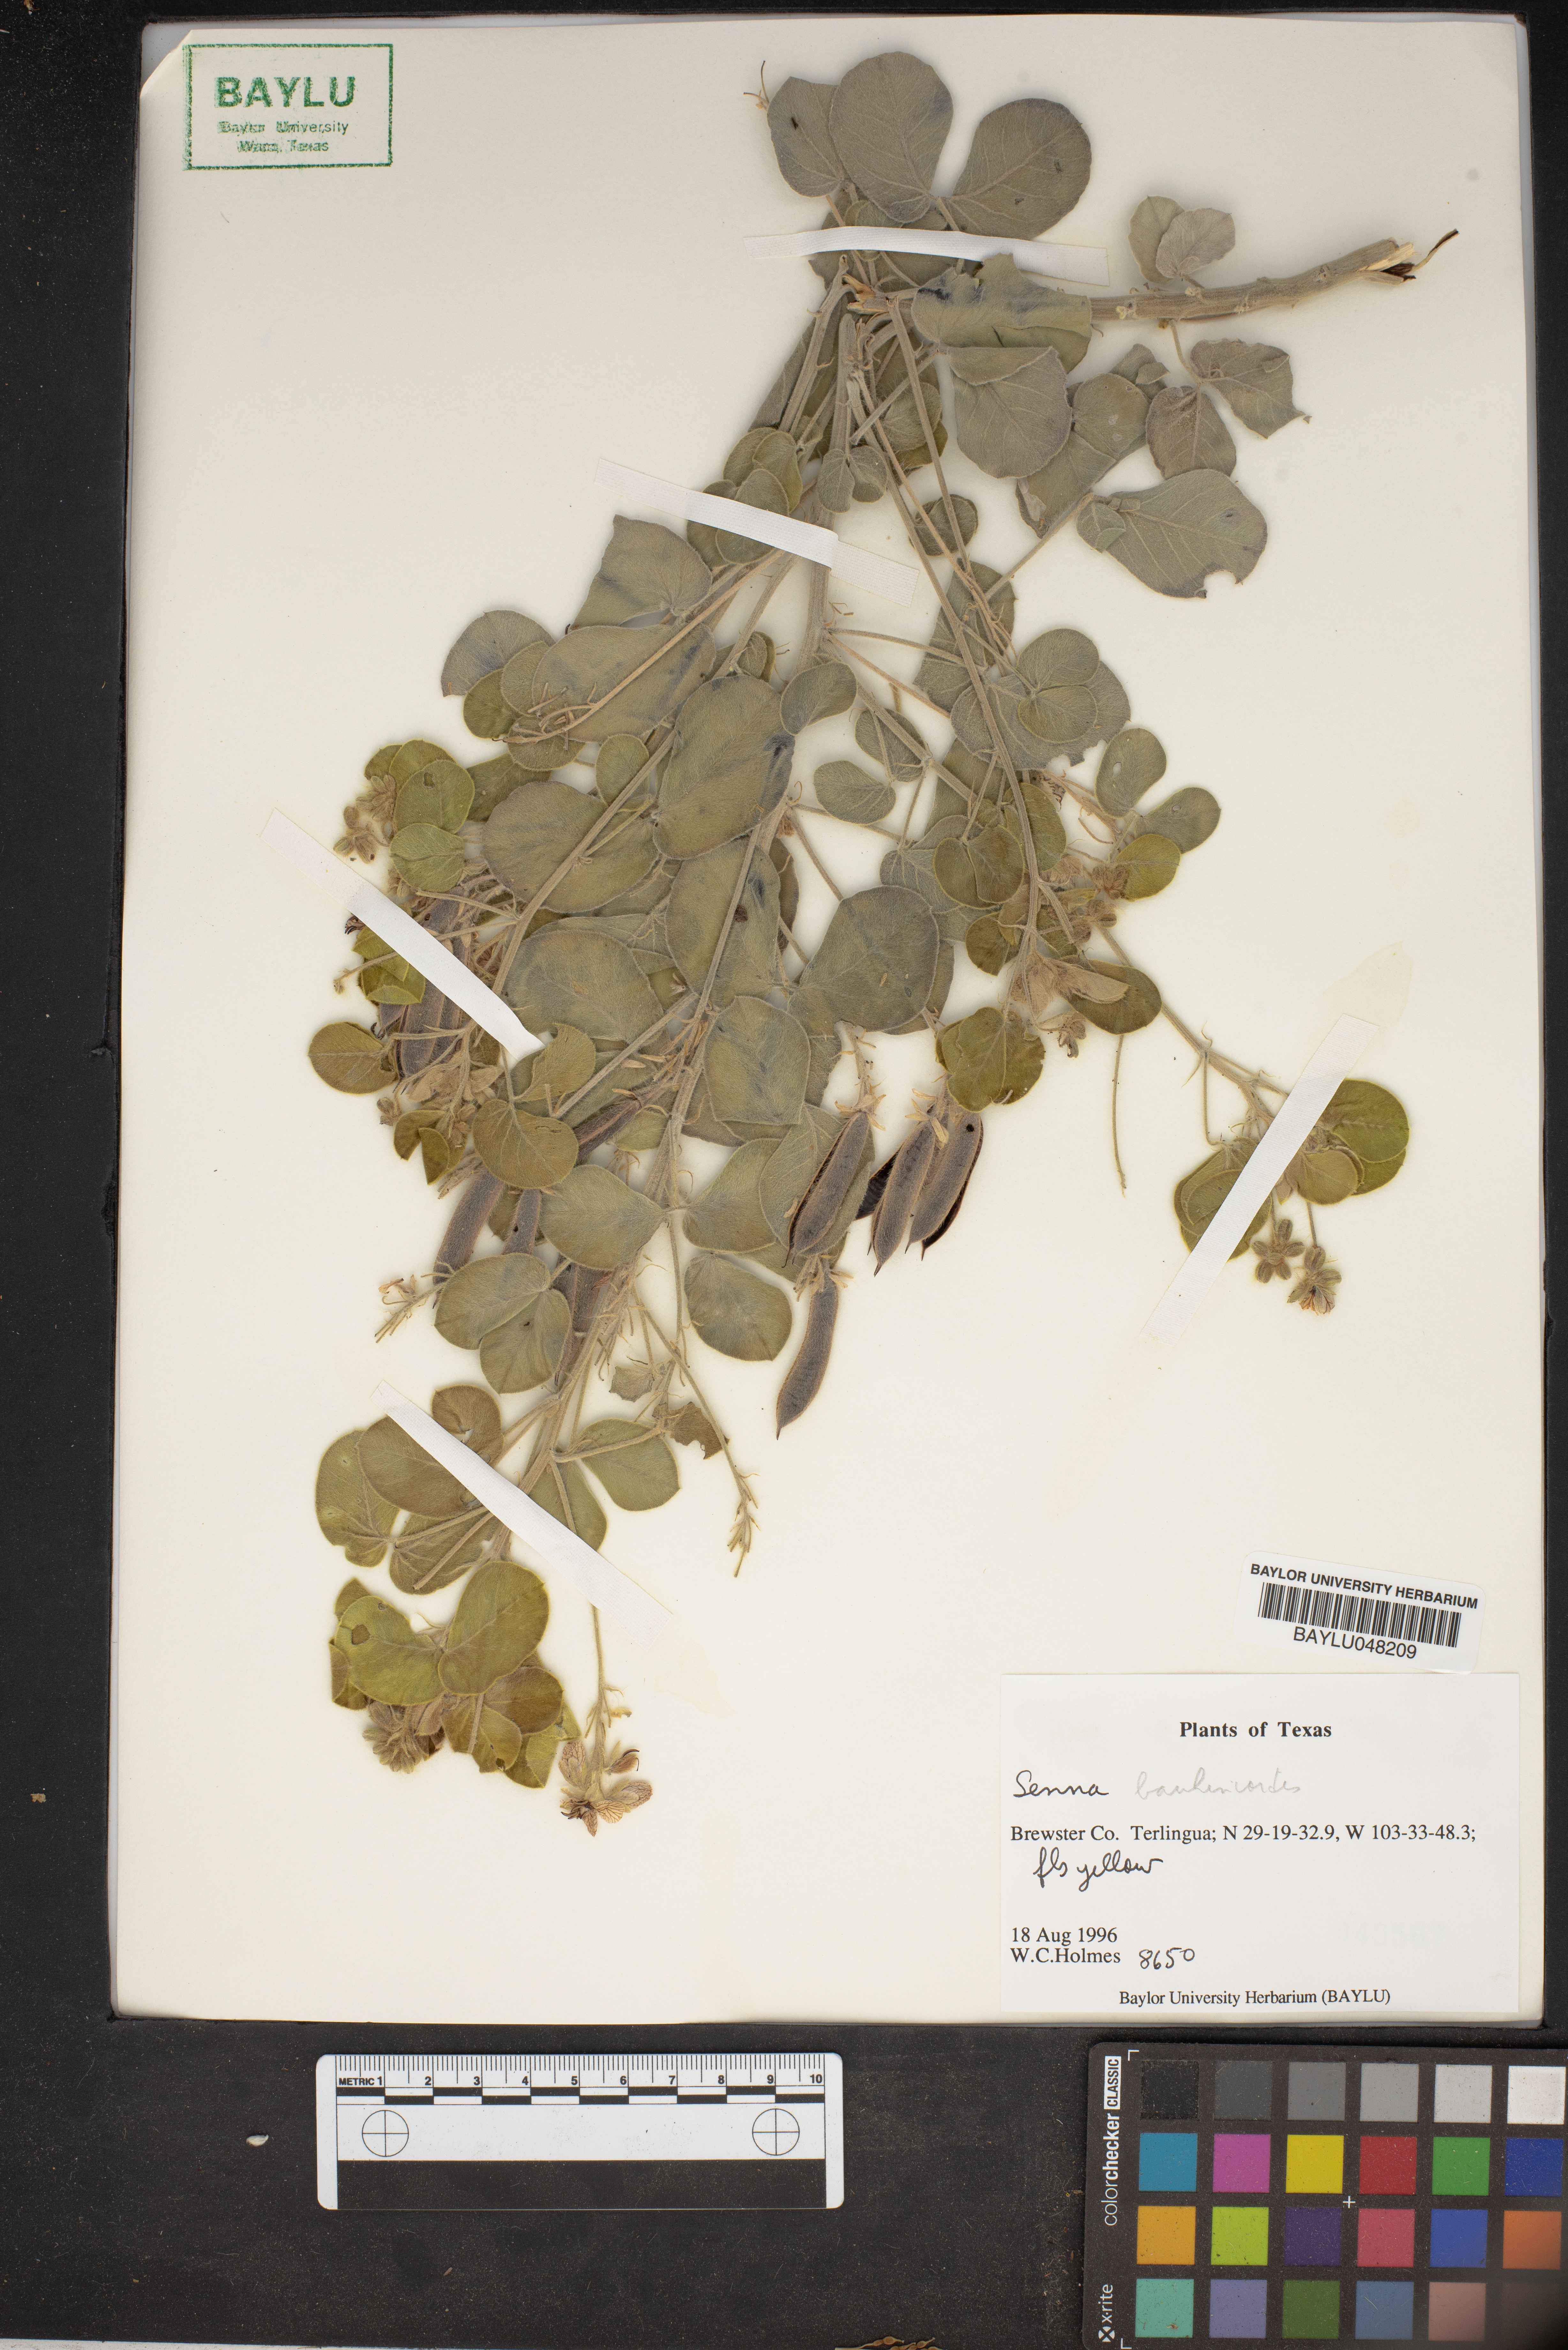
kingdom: Plantae
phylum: Tracheophyta
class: Magnoliopsida
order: Fabales
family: Fabaceae
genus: Senna
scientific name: Senna bauhinioides
